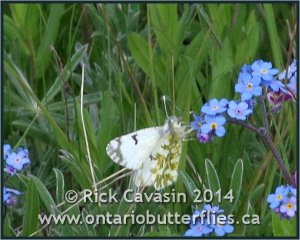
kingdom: Animalia
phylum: Arthropoda
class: Insecta
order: Lepidoptera
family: Pieridae
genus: Euchloe
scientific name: Euchloe ausonides
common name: Large Marble
